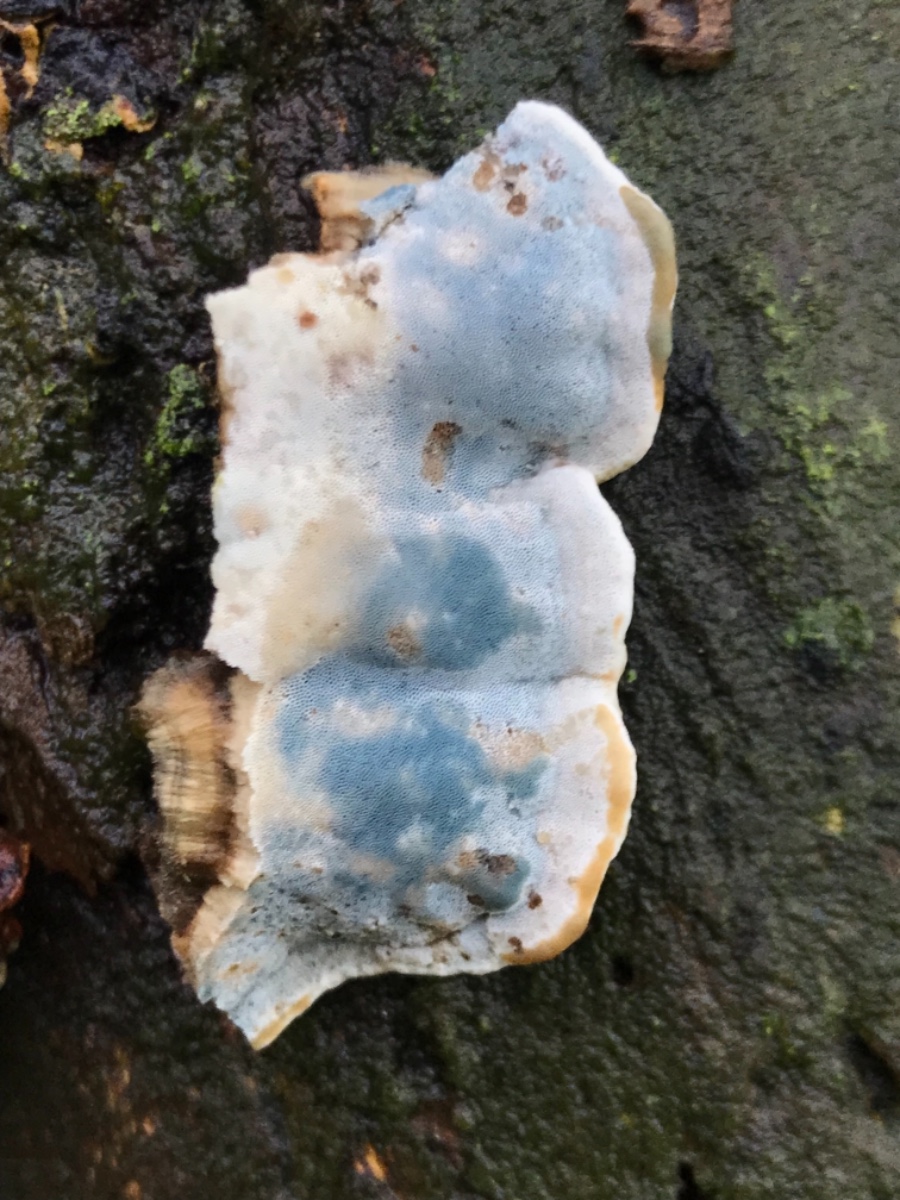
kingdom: Fungi
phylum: Basidiomycota
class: Agaricomycetes
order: Polyporales
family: Incrustoporiaceae
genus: Skeletocutis
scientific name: Skeletocutis nemoralis
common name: stor krystalporesvamp
